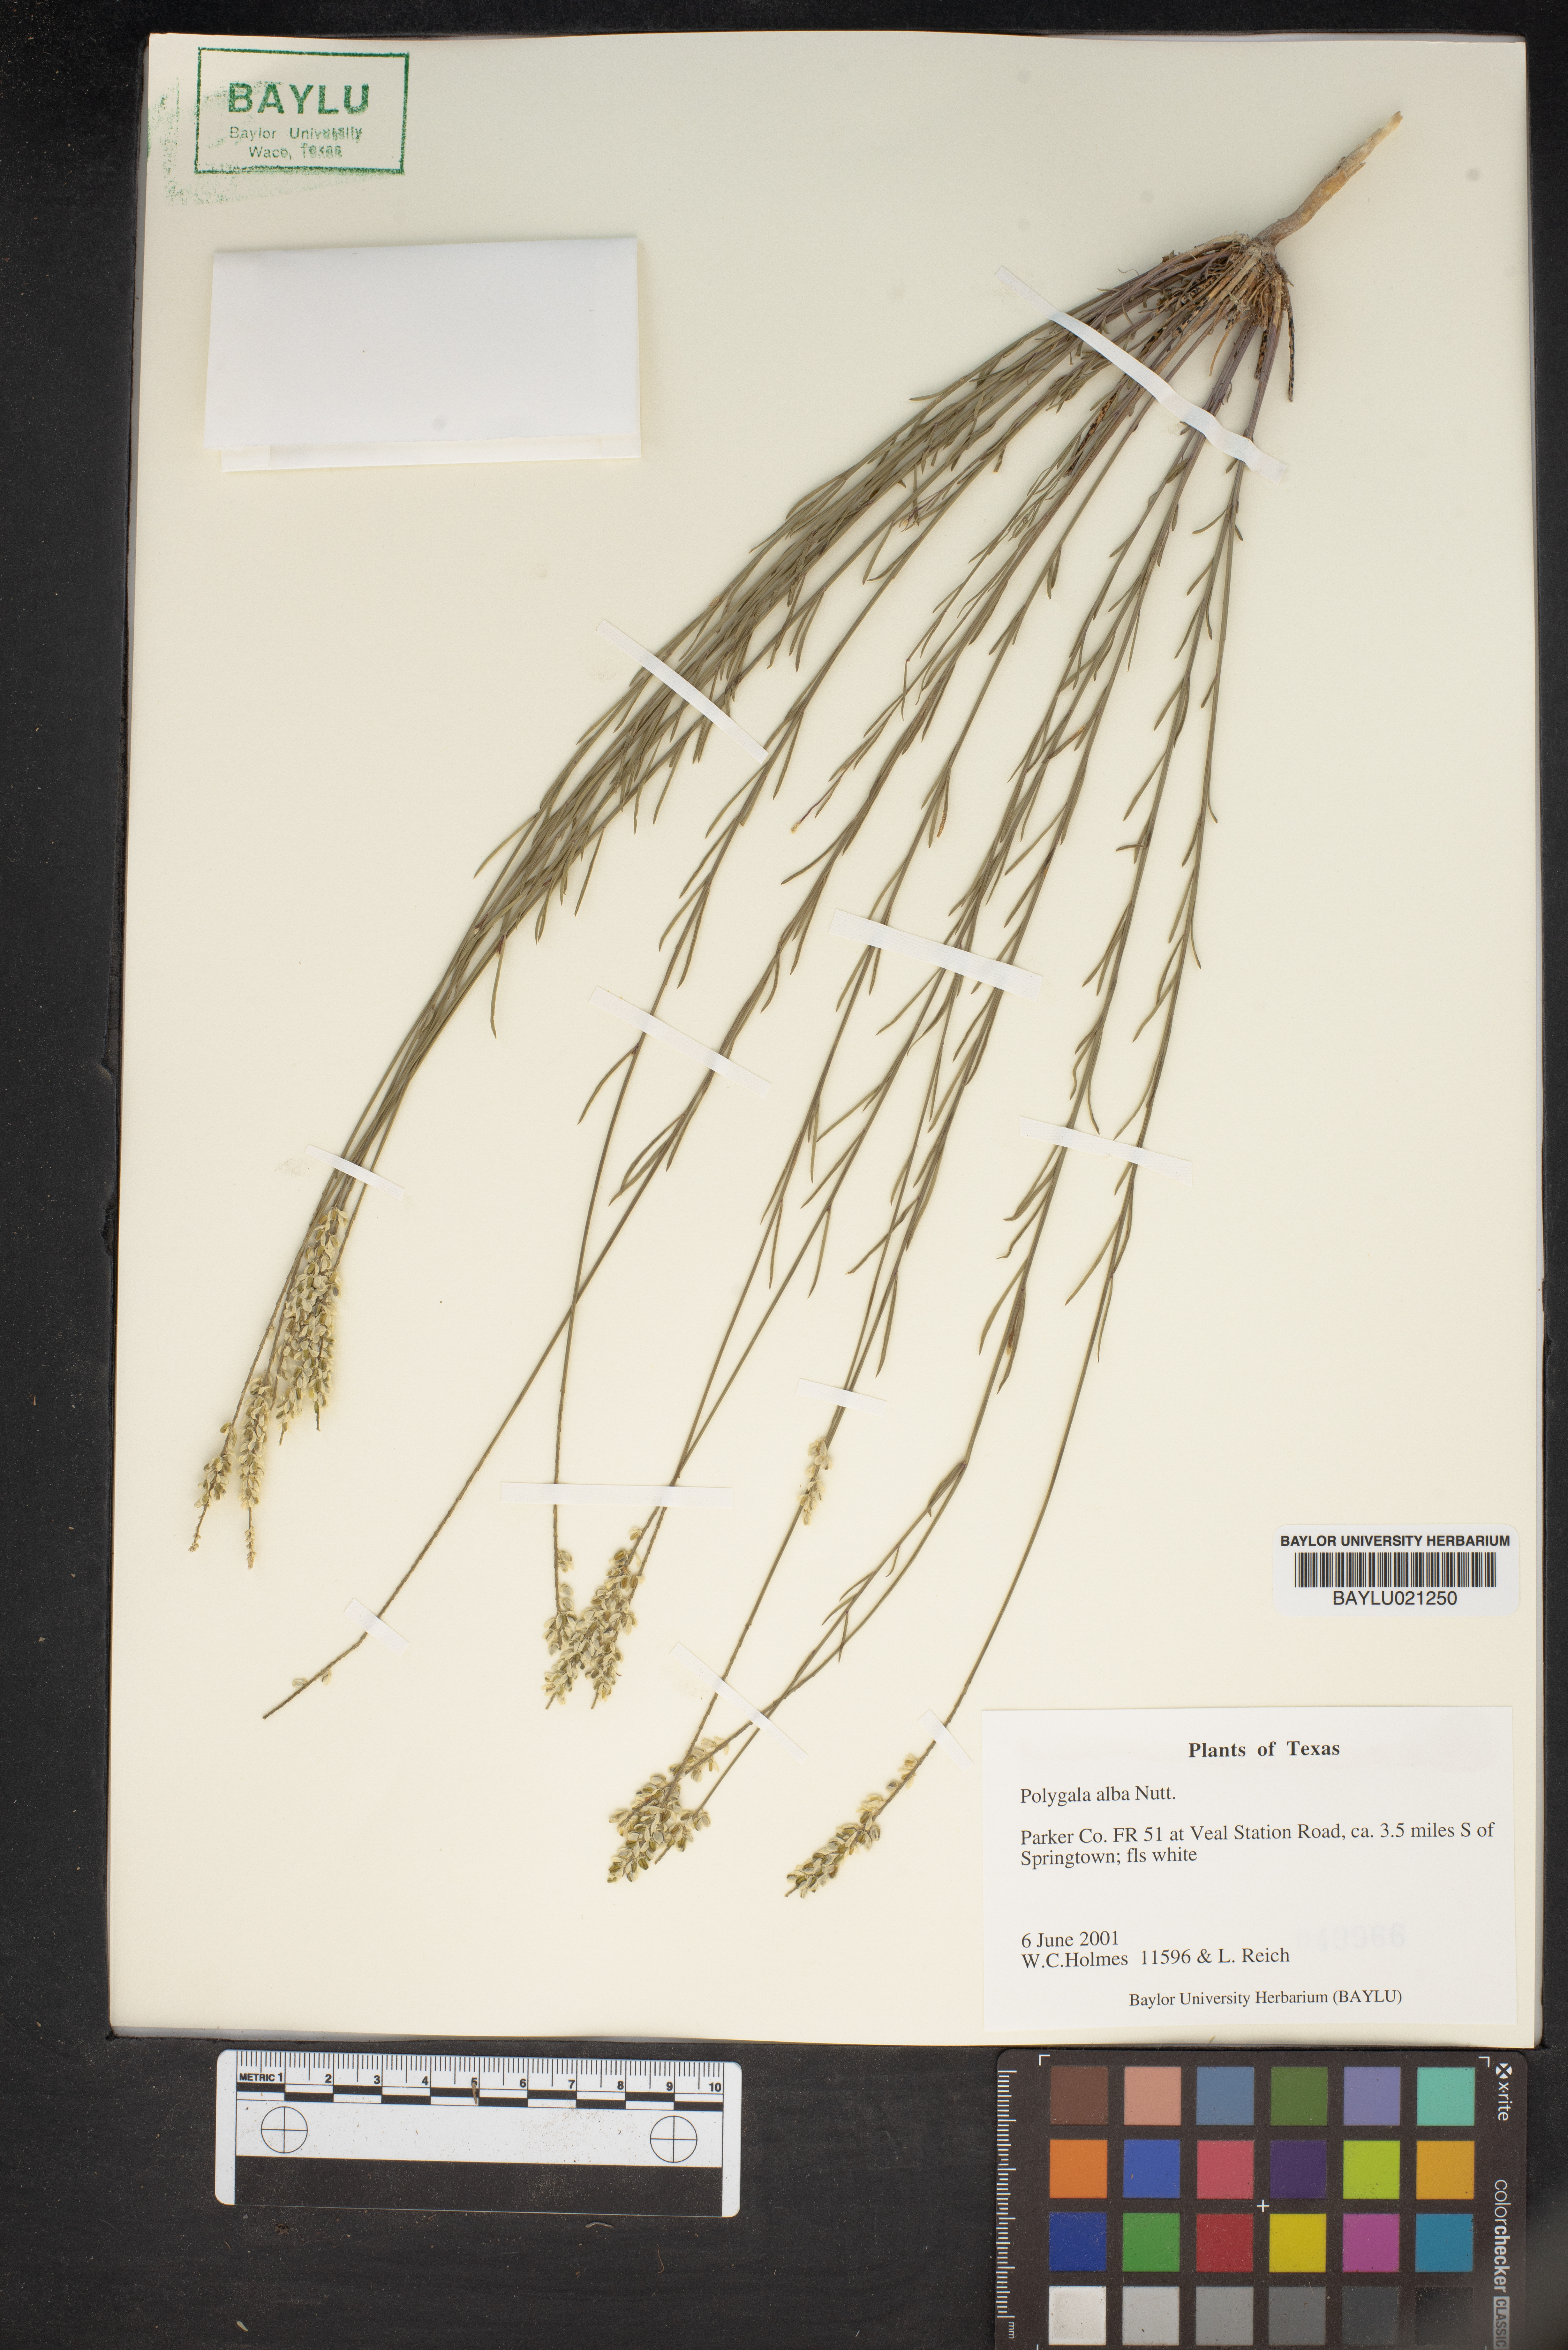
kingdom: Plantae
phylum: Tracheophyta
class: Magnoliopsida
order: Fabales
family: Polygalaceae
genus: Polygala
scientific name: Polygala alba
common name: White milkwort
